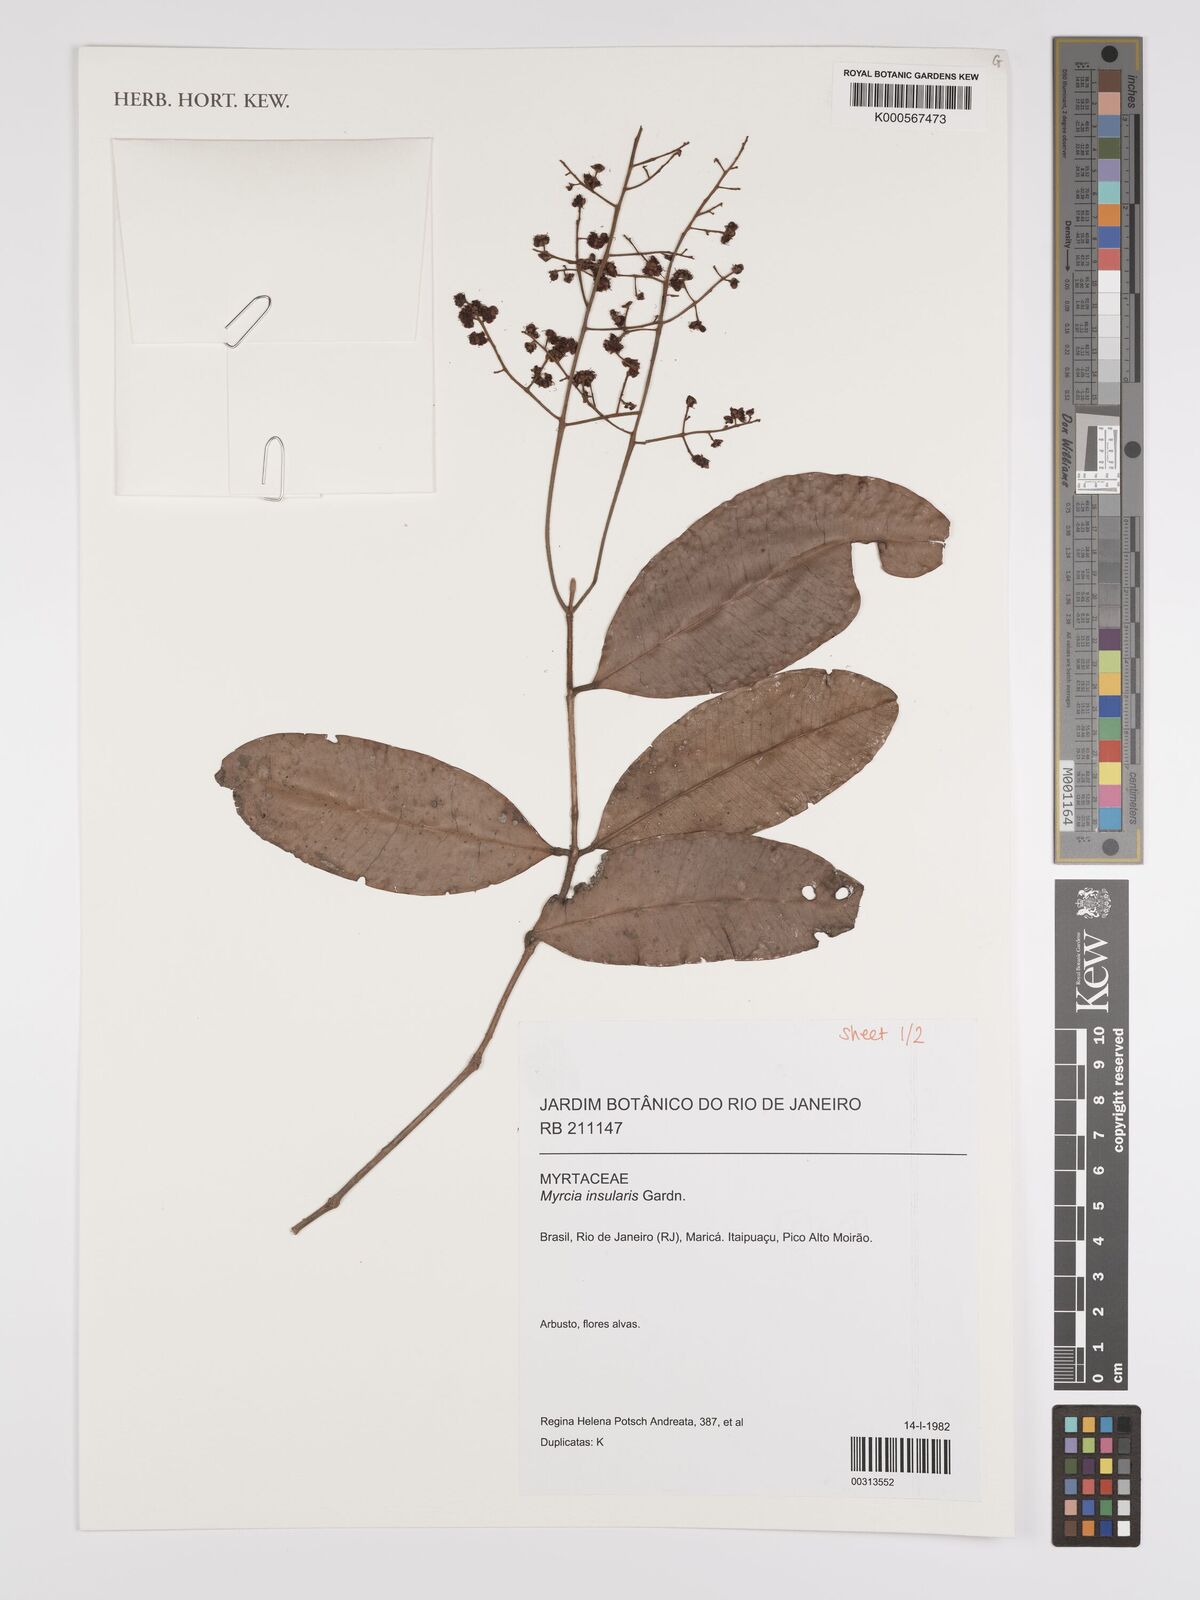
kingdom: Plantae
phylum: Tracheophyta
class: Magnoliopsida
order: Myrtales
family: Myrtaceae
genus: Myrcia
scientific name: Myrcia insularis
